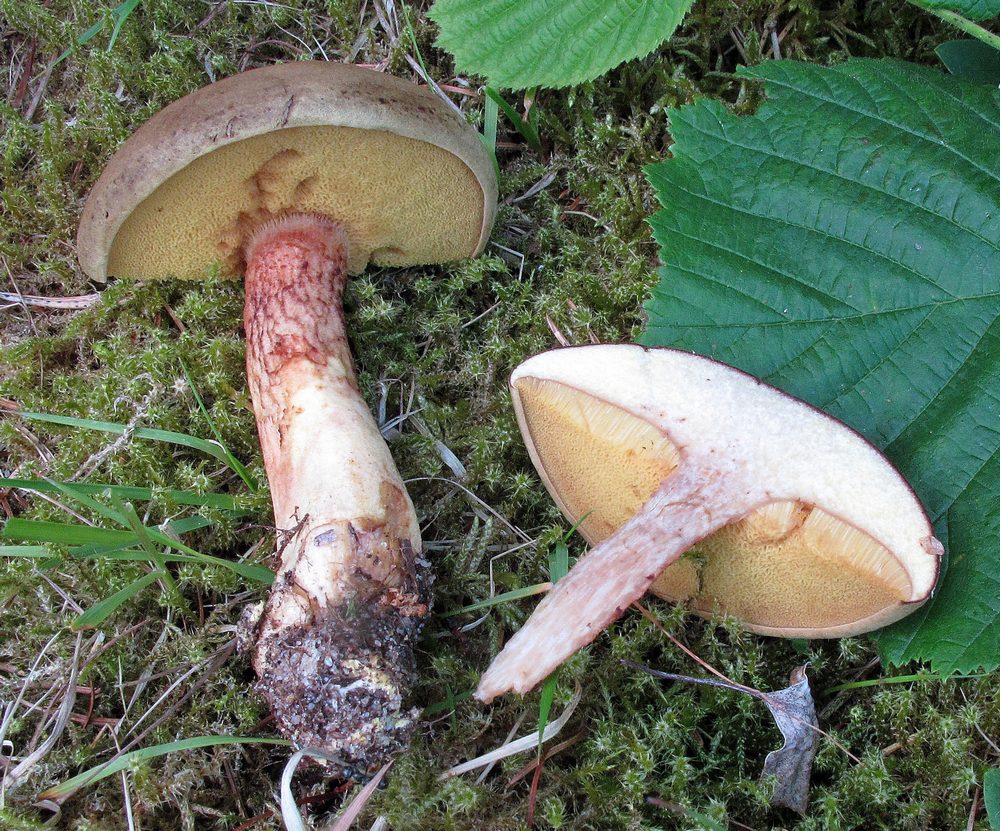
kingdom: Fungi
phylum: Basidiomycota
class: Agaricomycetes
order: Boletales
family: Boletaceae
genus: Xerocomus
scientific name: Xerocomus ferrugineus
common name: vaskeskinds-rørhat
